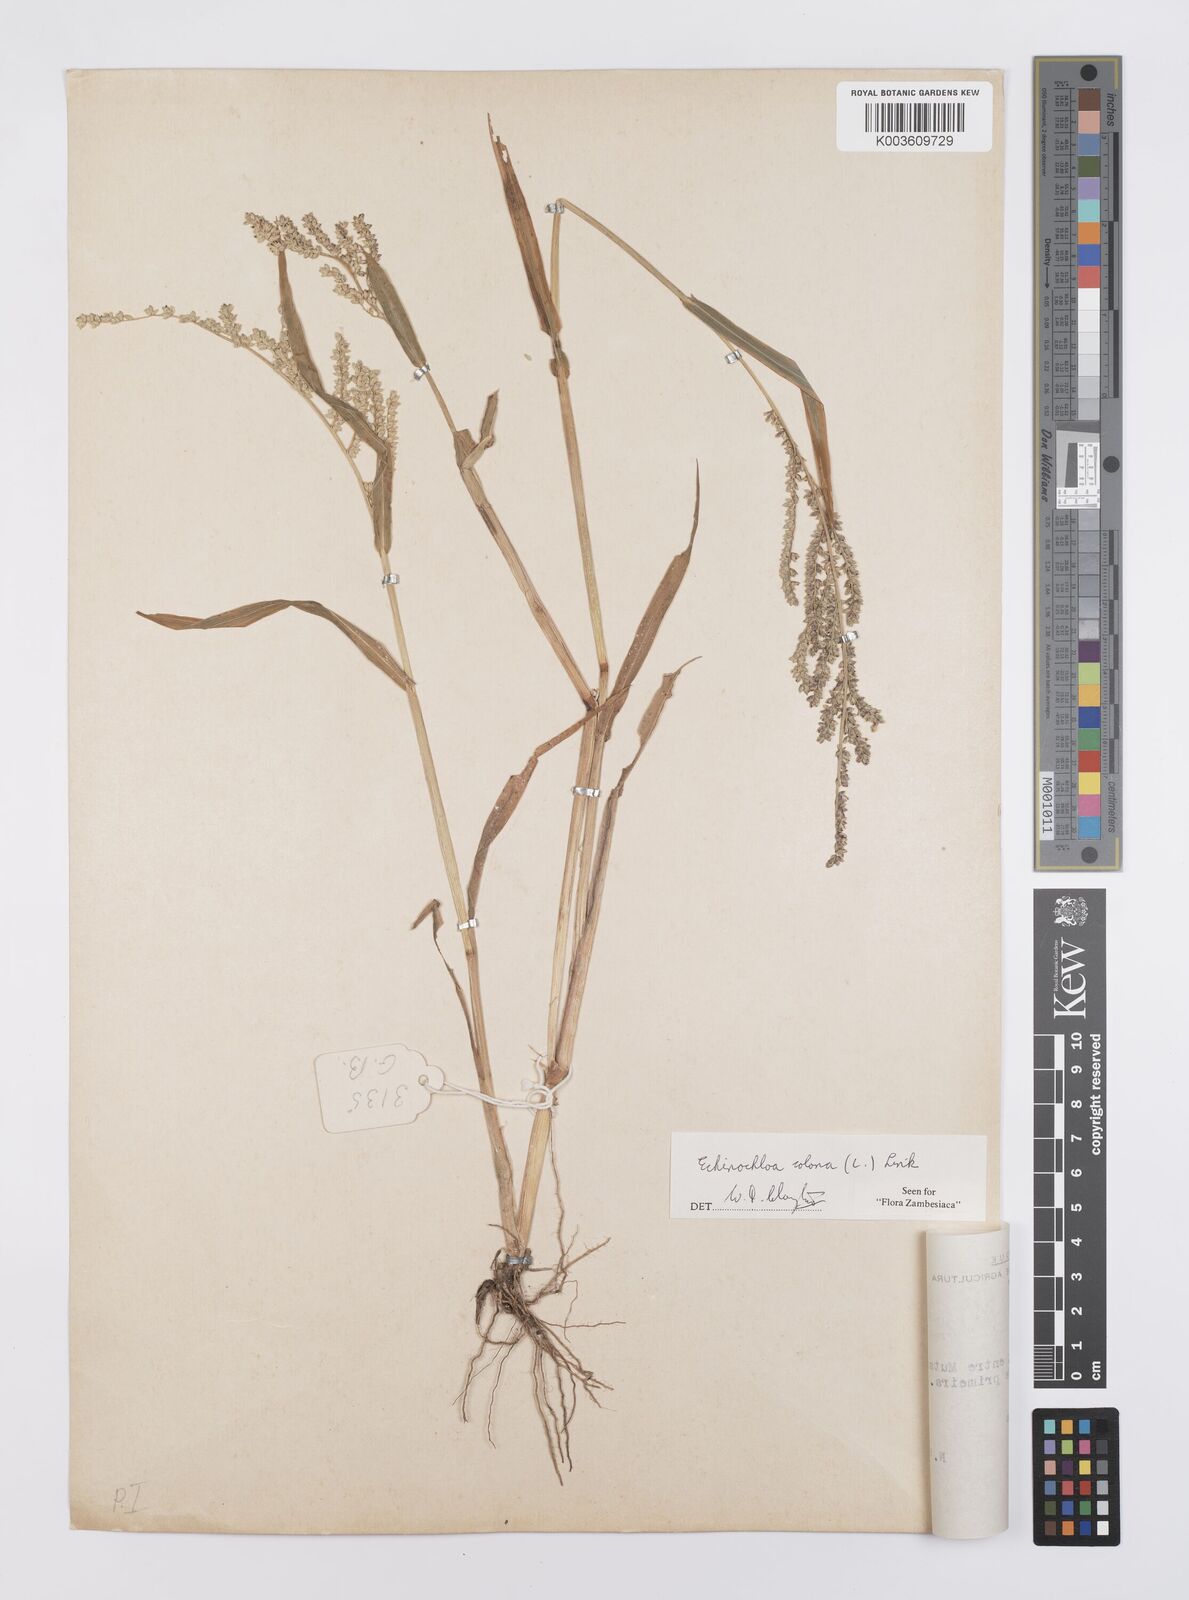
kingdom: Plantae
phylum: Tracheophyta
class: Liliopsida
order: Poales
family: Poaceae
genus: Echinochloa
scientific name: Echinochloa colonum
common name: Jungle rice
